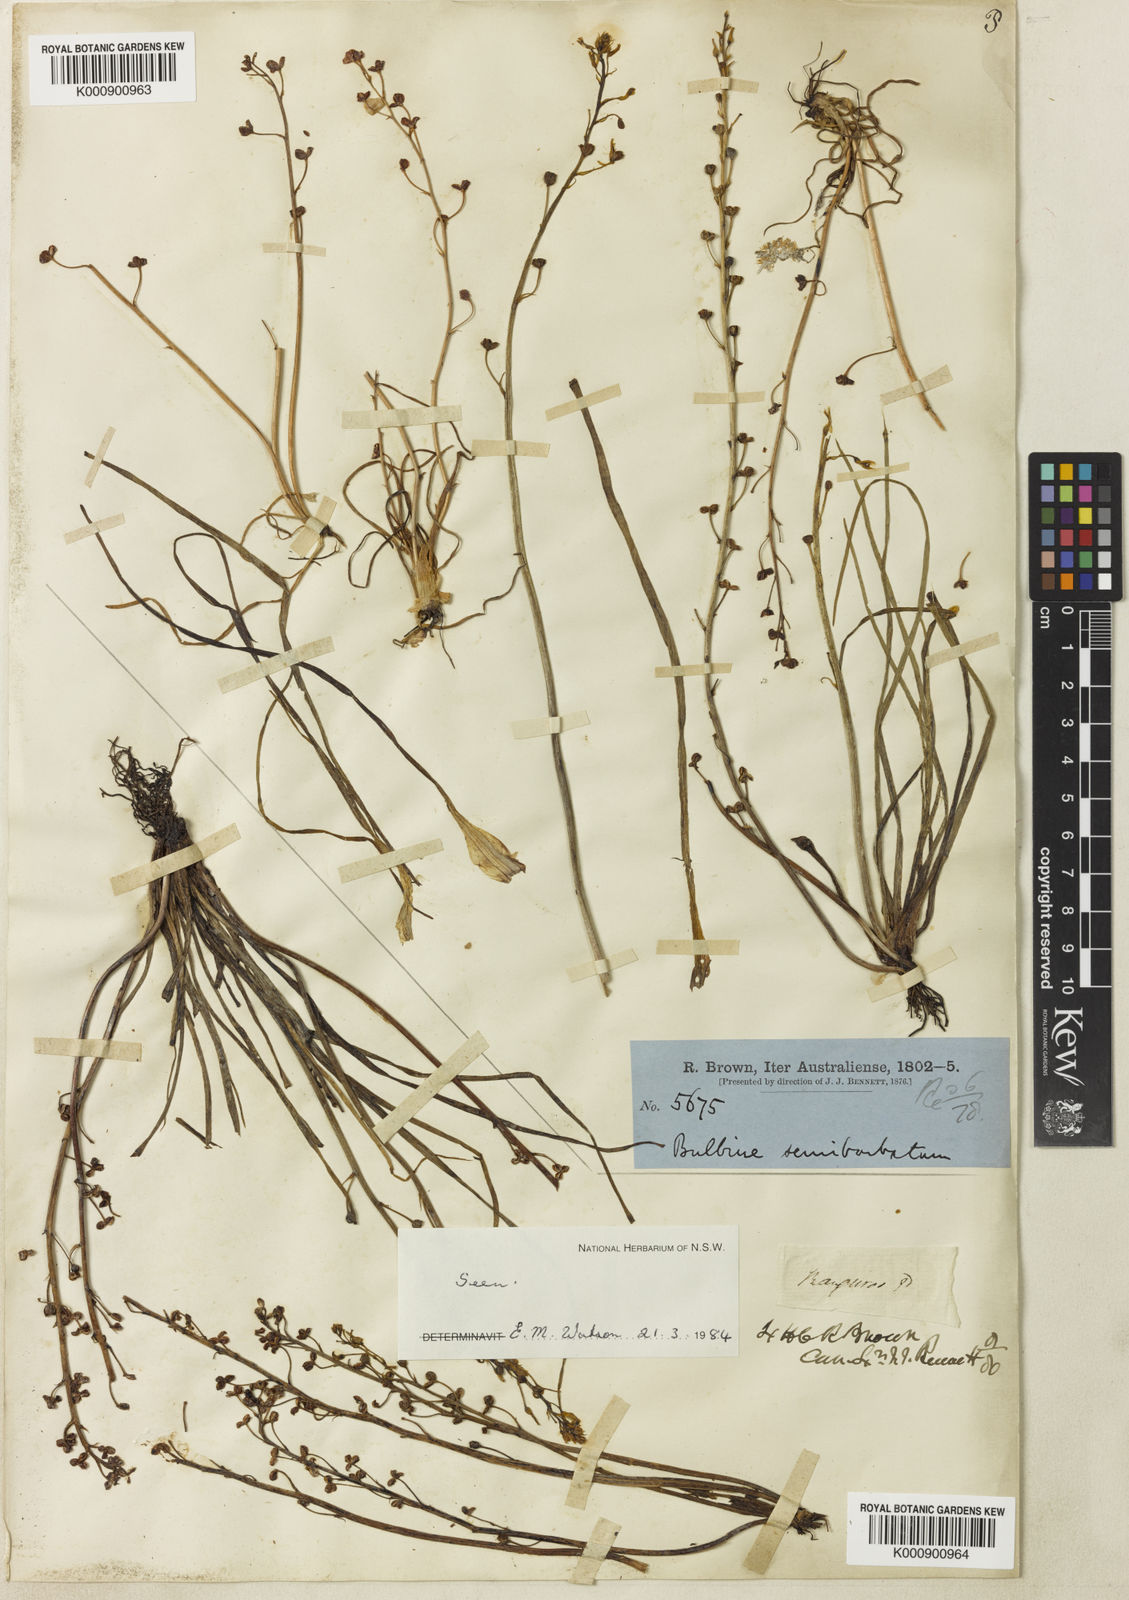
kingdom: Plantae
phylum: Tracheophyta
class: Liliopsida
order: Asparagales
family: Asphodelaceae
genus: Bulbine
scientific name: Bulbine semibarbata
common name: Leek lily
